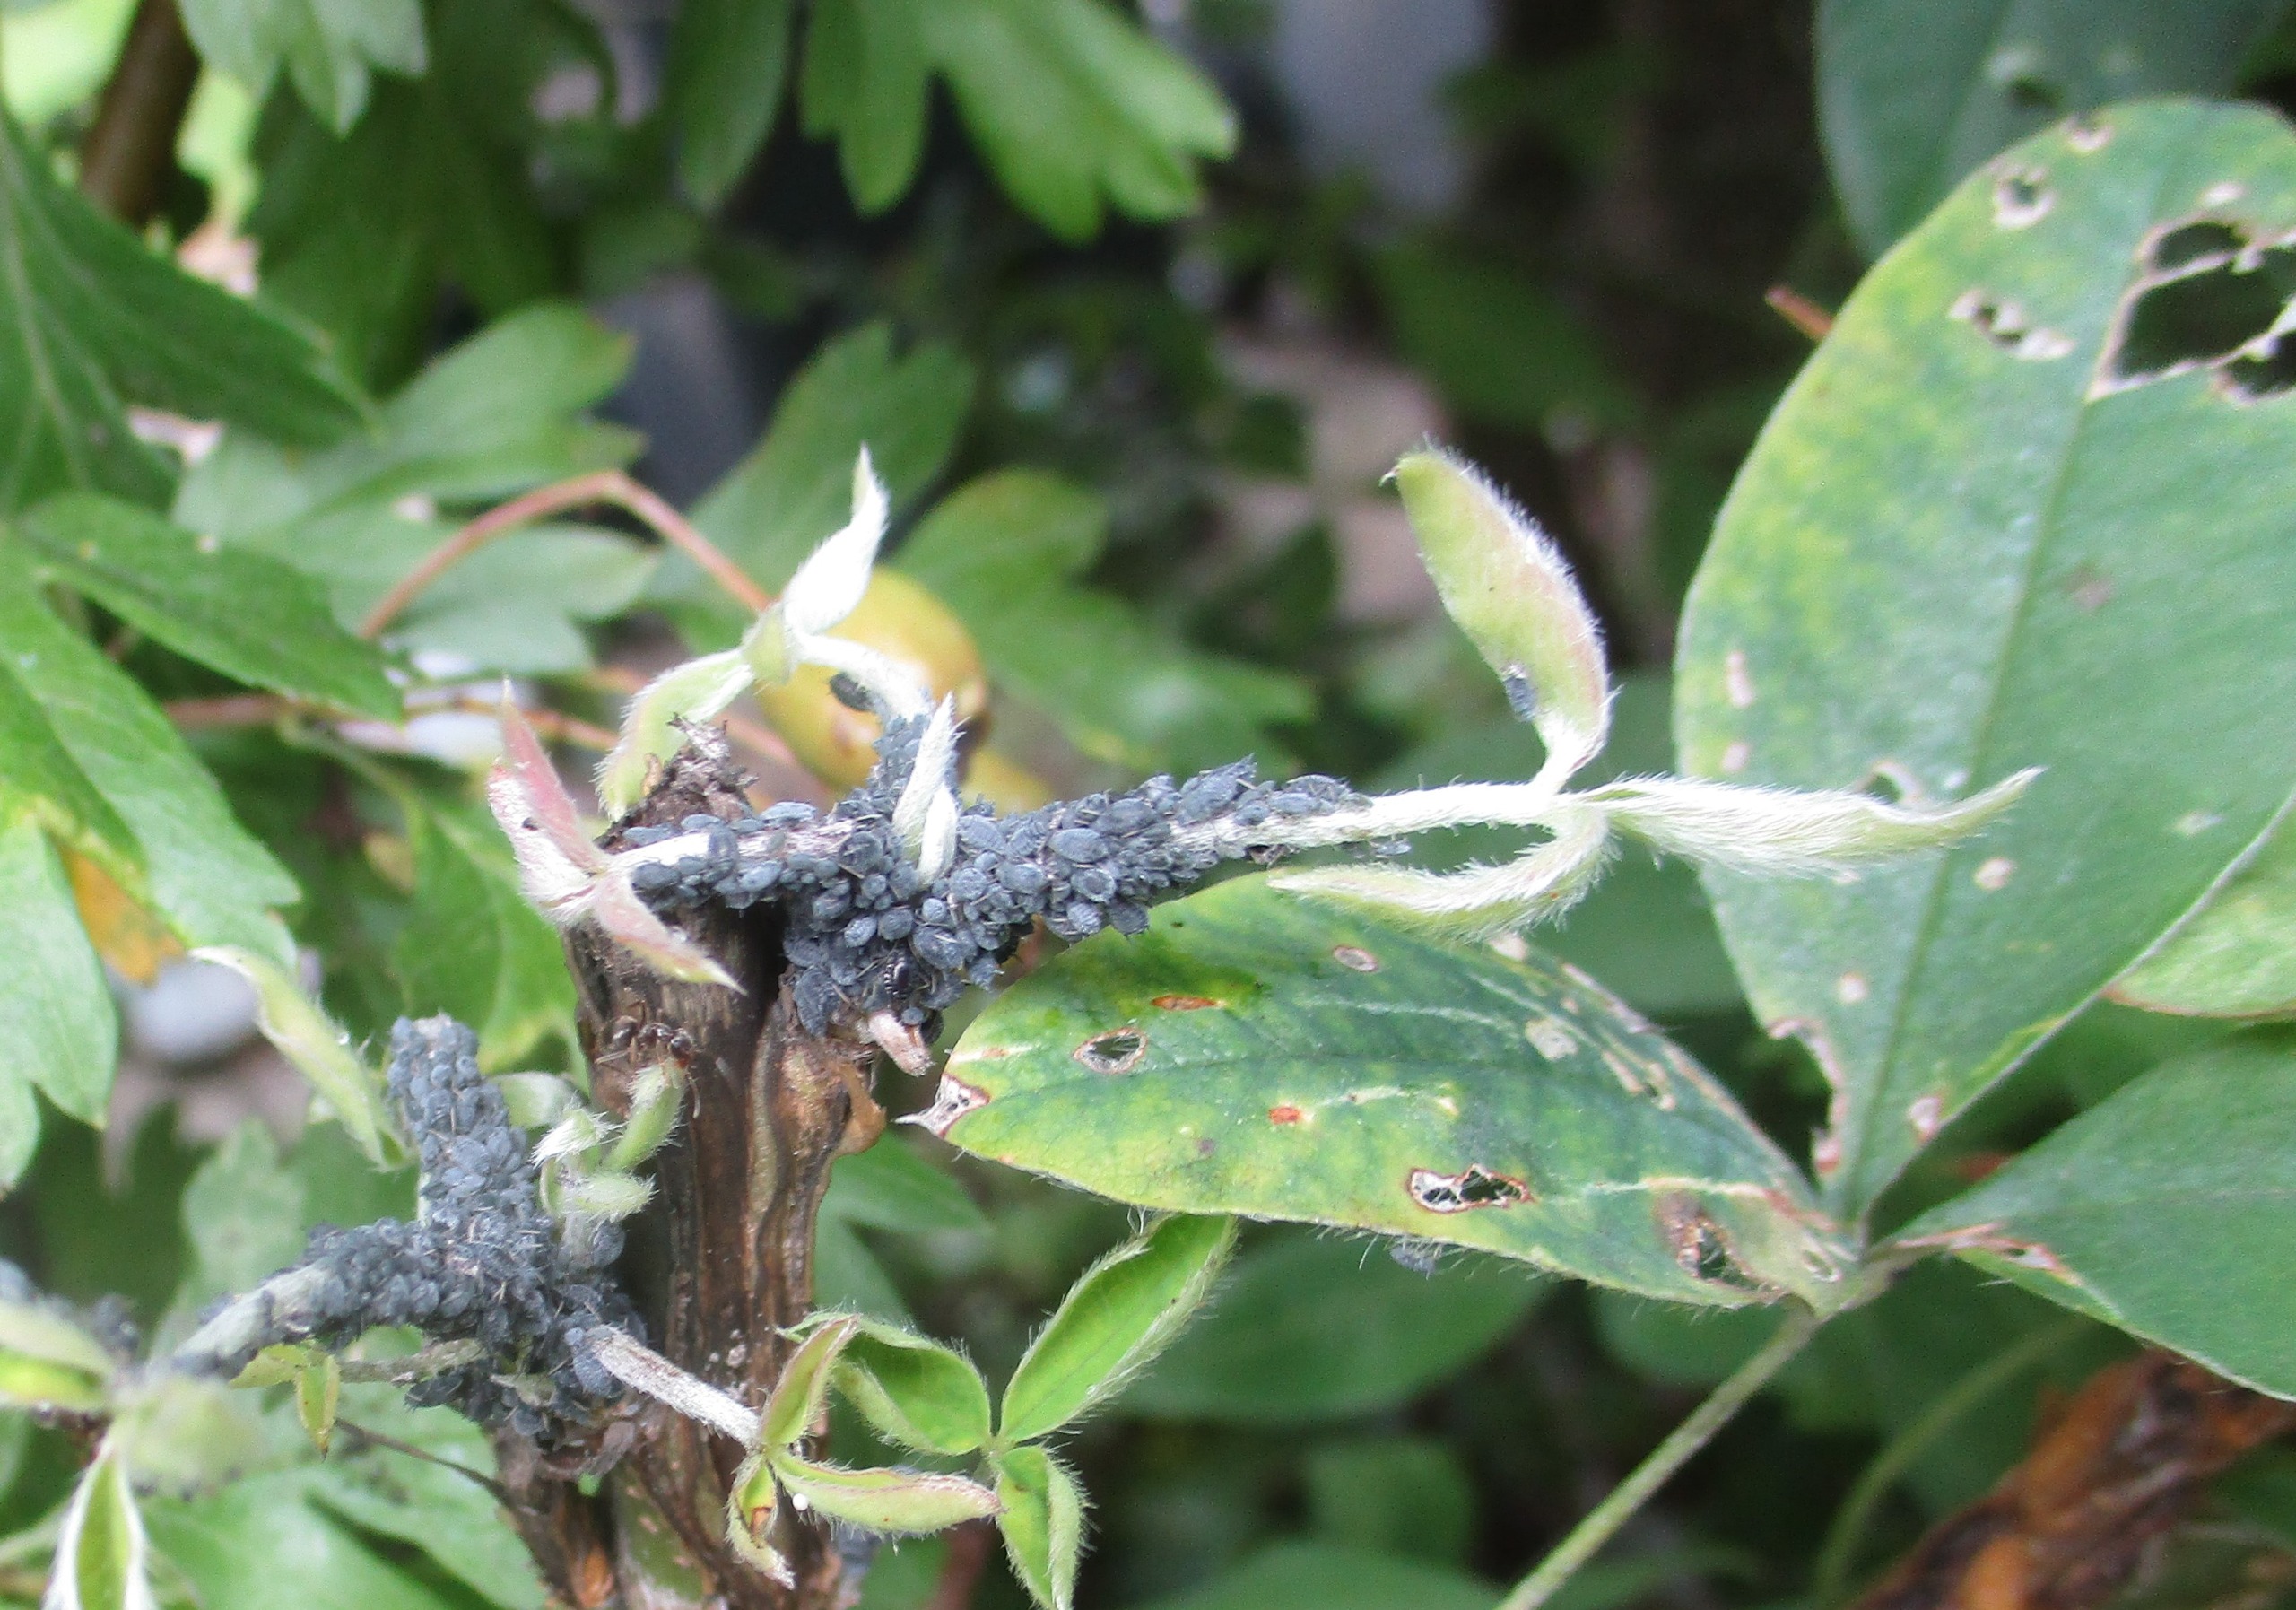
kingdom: Animalia
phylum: Arthropoda
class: Insecta
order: Hemiptera
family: Aphididae
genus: Aphis
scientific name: Aphis cytisorum
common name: Guldregnbladlus
